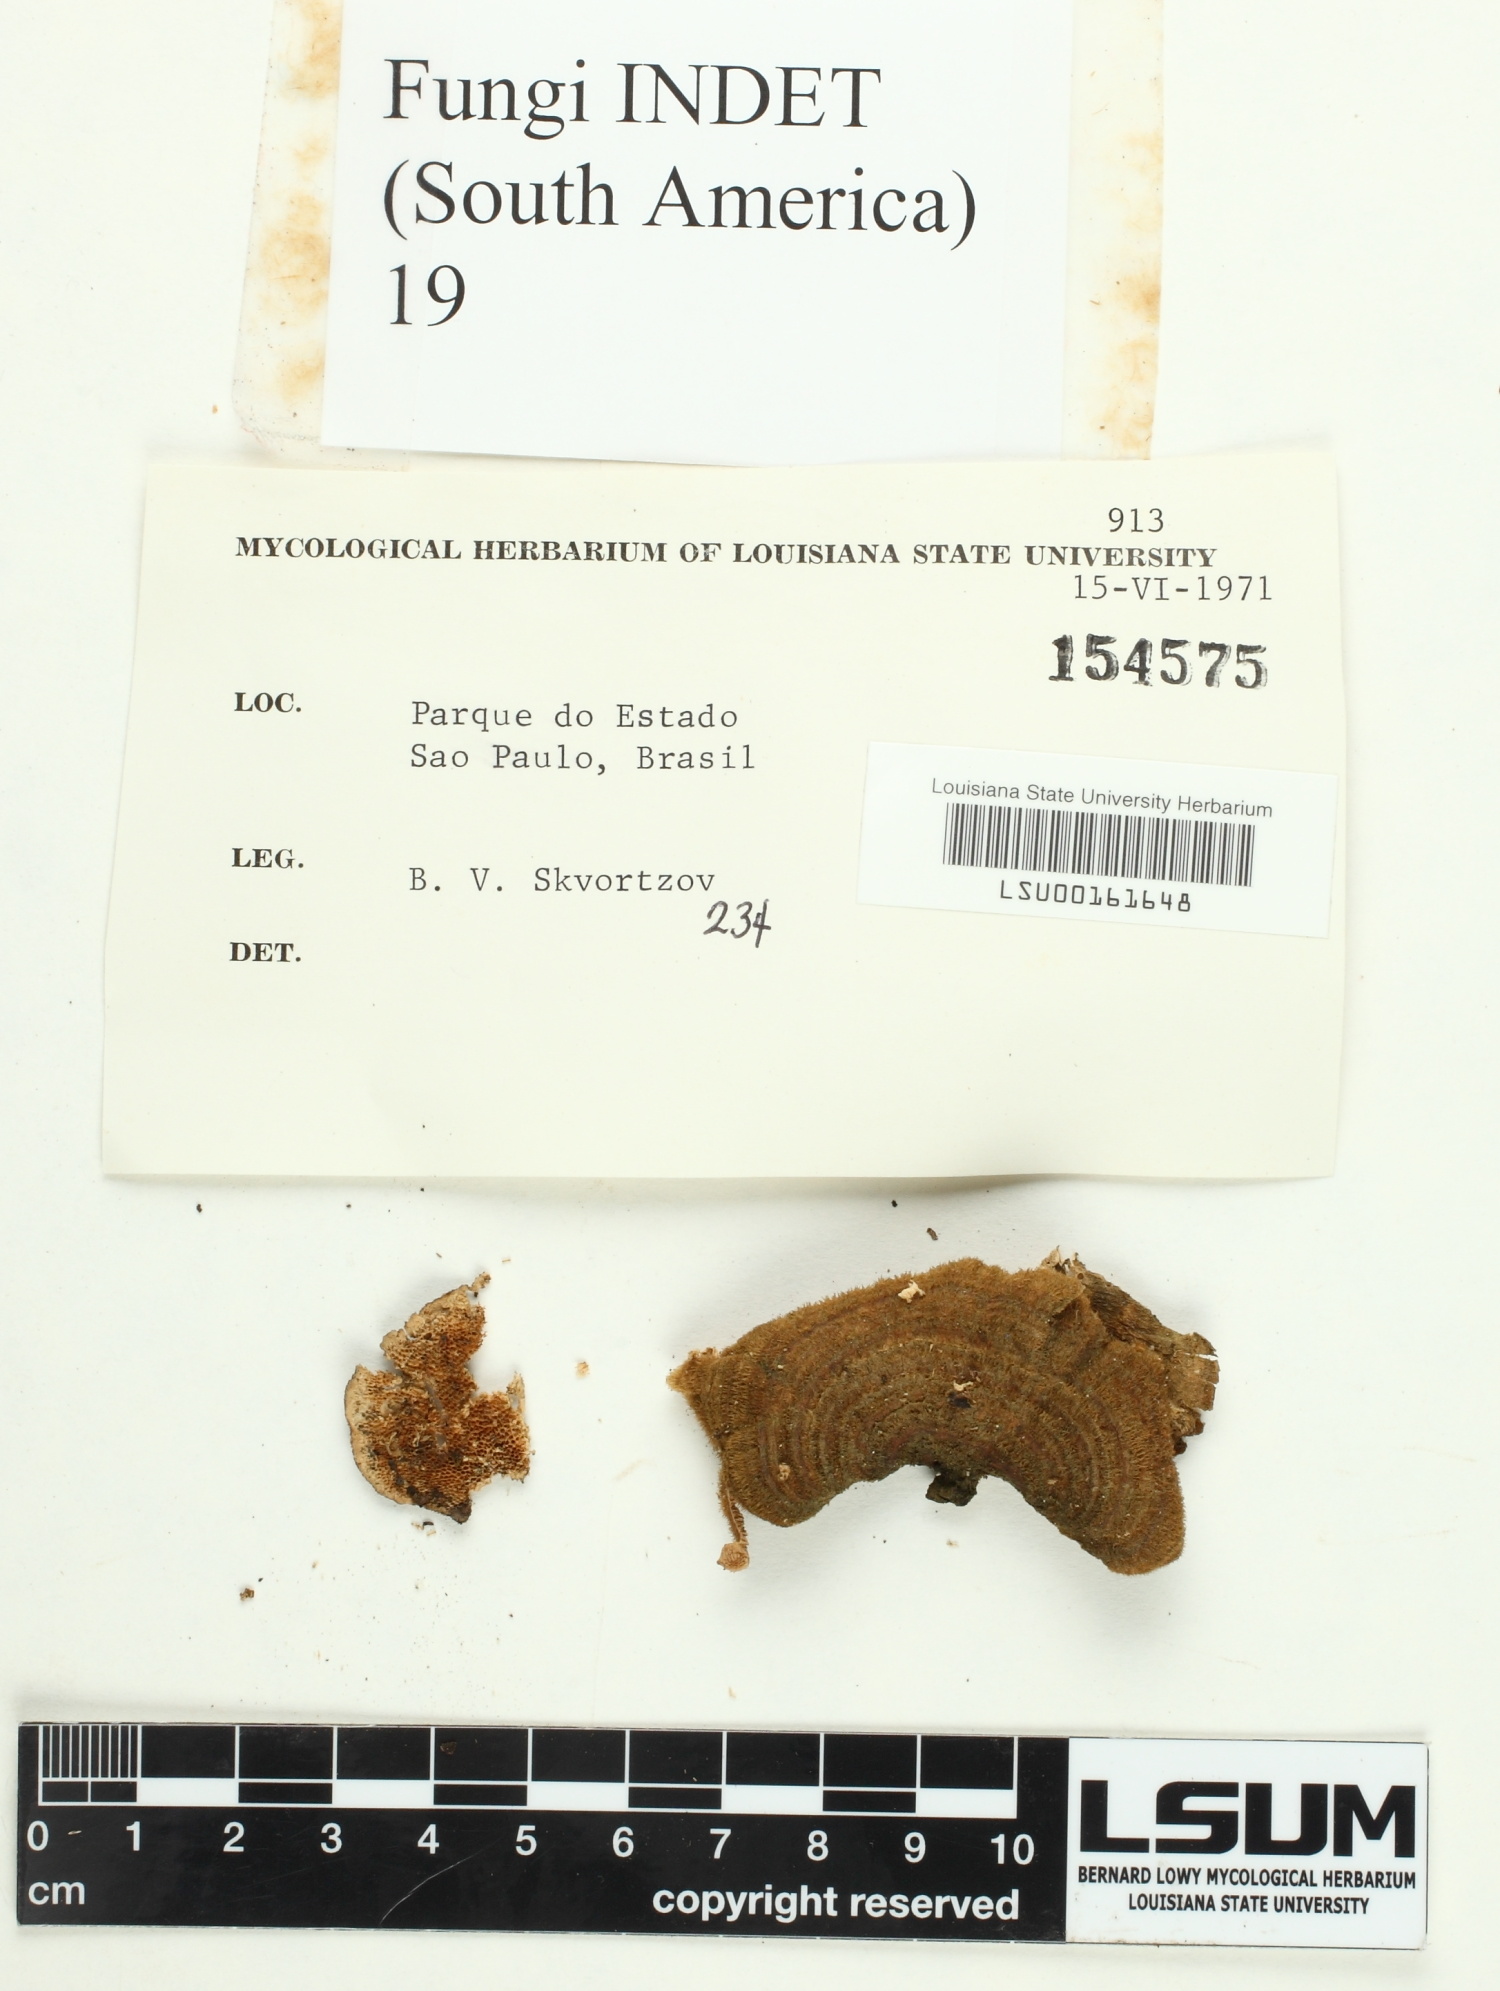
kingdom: Fungi
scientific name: Fungi
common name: Fungi
